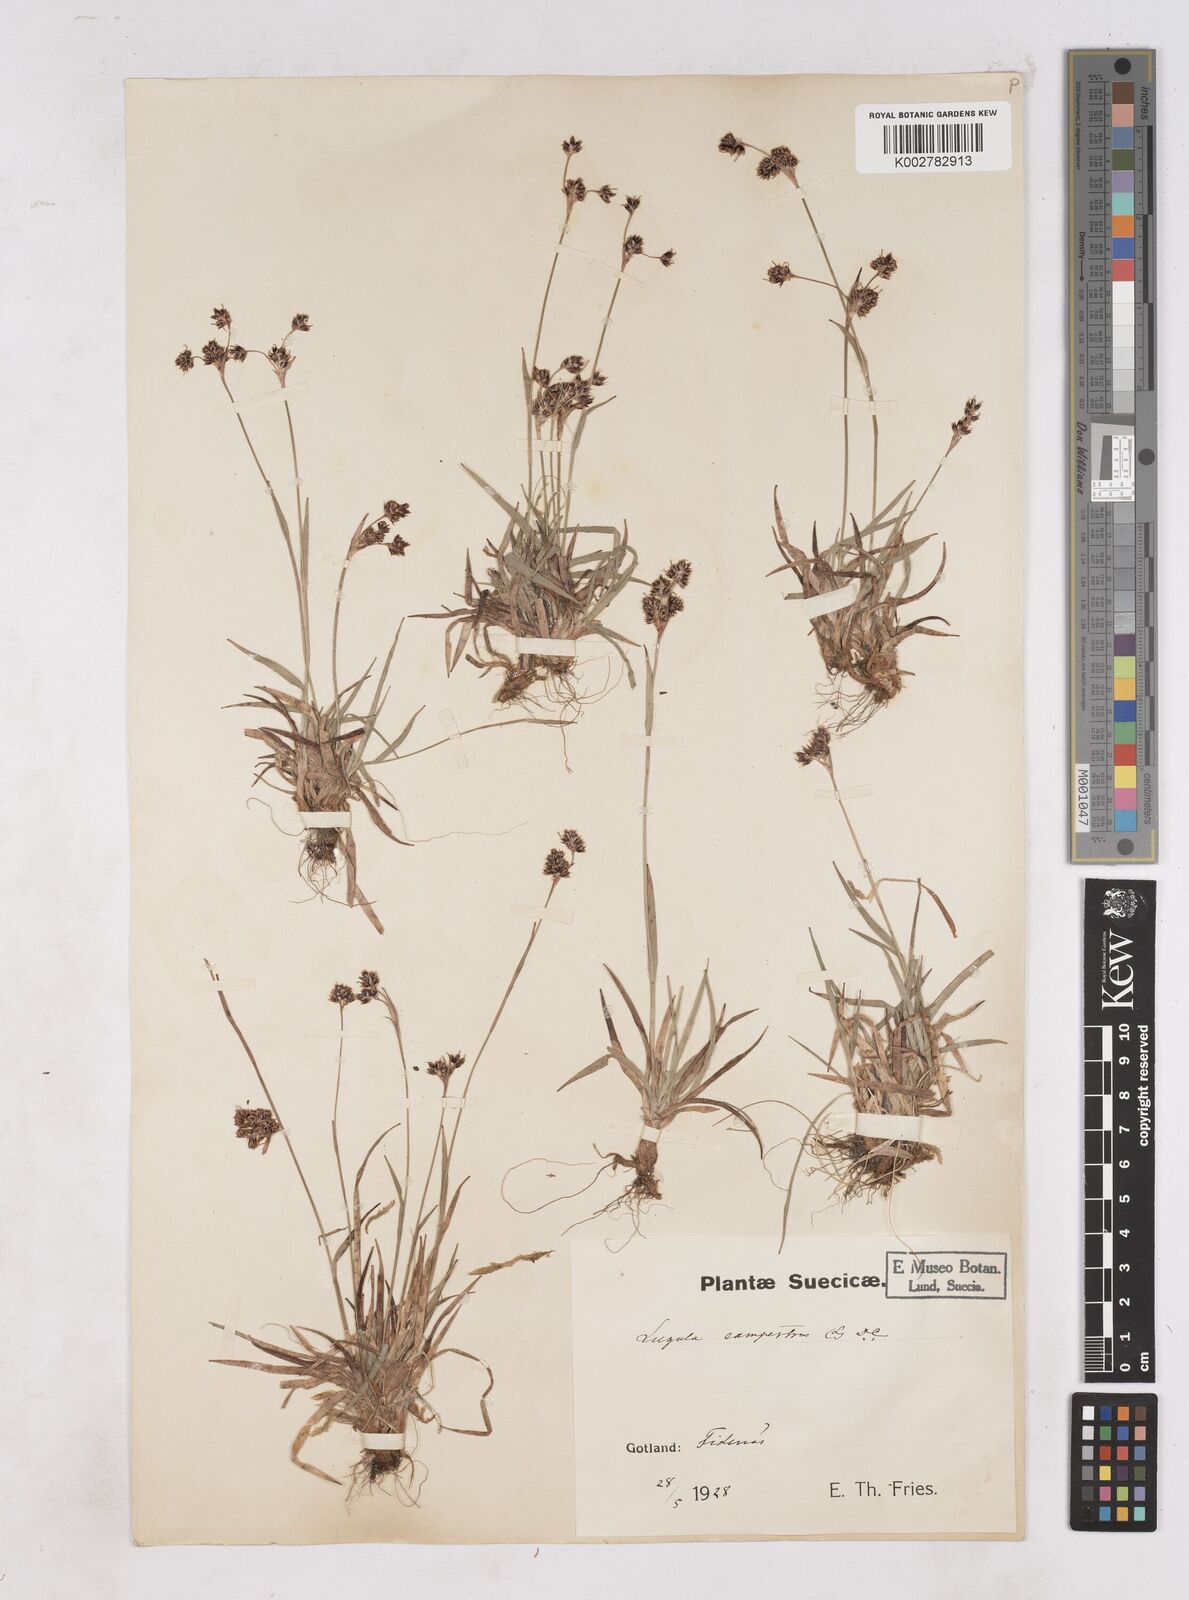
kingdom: Plantae
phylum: Tracheophyta
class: Liliopsida
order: Poales
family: Juncaceae
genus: Luzula
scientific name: Luzula campestris
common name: Field wood-rush
